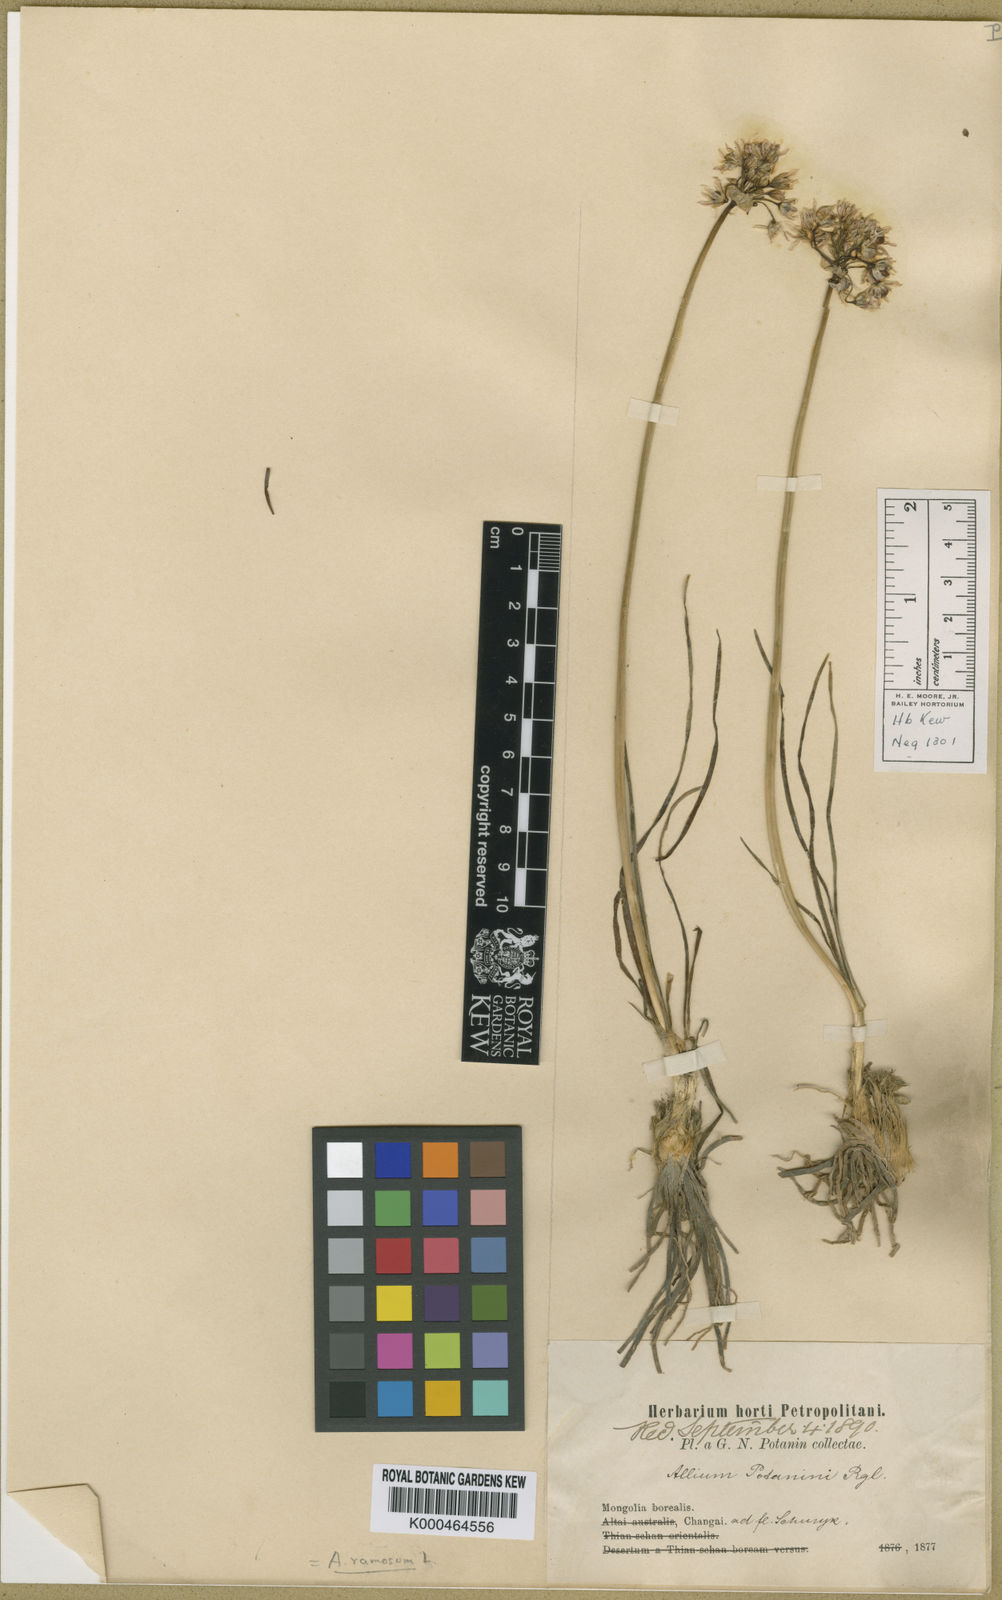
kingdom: Plantae
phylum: Tracheophyta
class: Liliopsida
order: Asparagales
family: Amaryllidaceae
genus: Allium
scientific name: Allium ramosum
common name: Fragrant garlic
